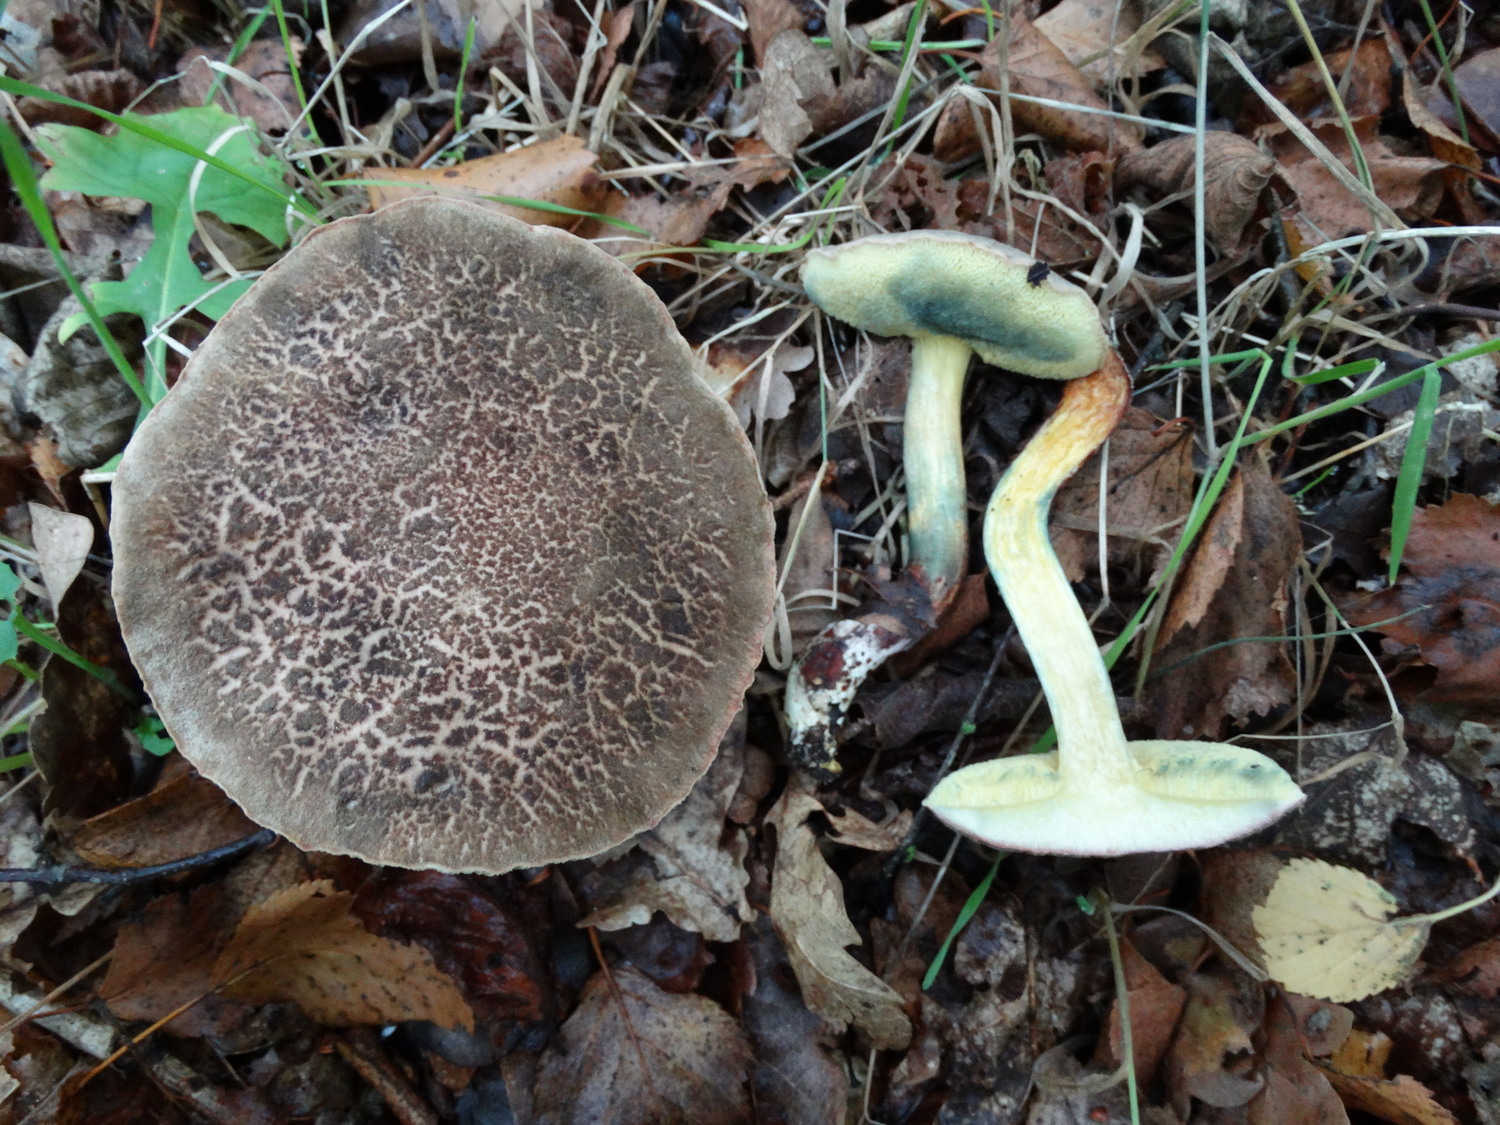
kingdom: Fungi
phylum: Basidiomycota
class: Agaricomycetes
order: Boletales
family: Boletaceae
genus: Xerocomellus
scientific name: Xerocomellus cisalpinus
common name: finsprukken rørhat
